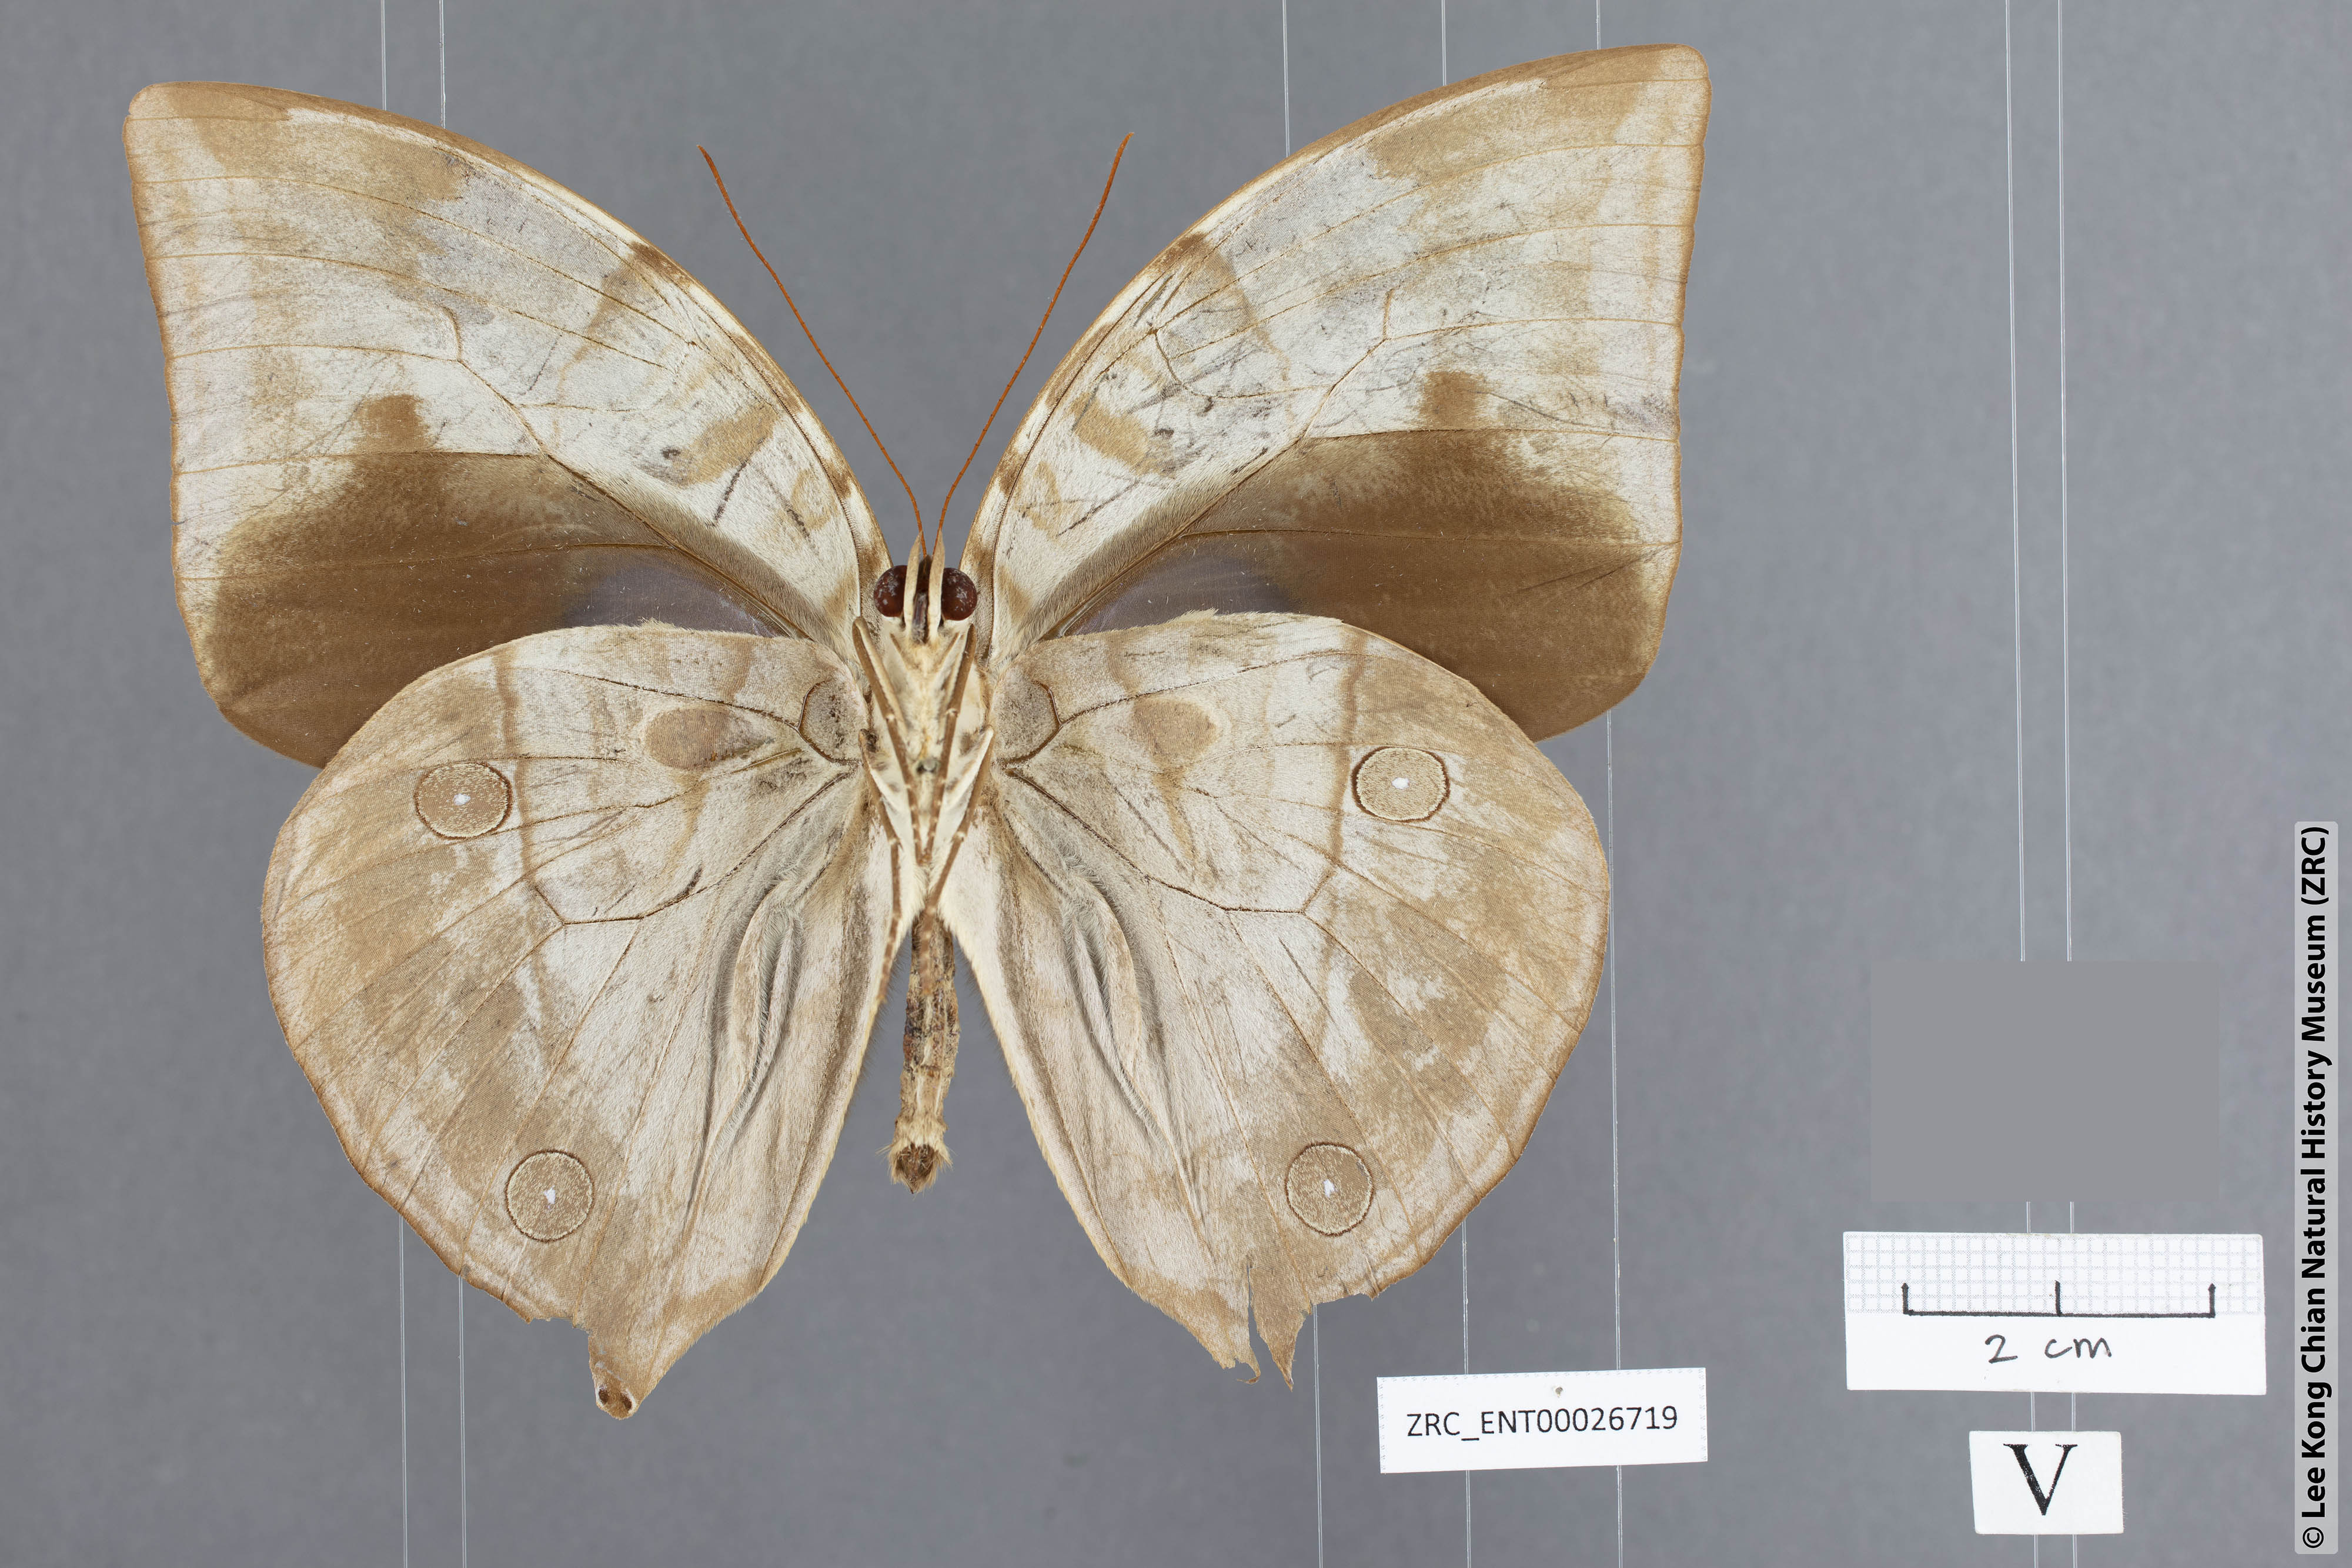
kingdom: Animalia
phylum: Arthropoda
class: Insecta
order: Lepidoptera
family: Nymphalidae
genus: Zeuxidia
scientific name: Zeuxidia aurelia
